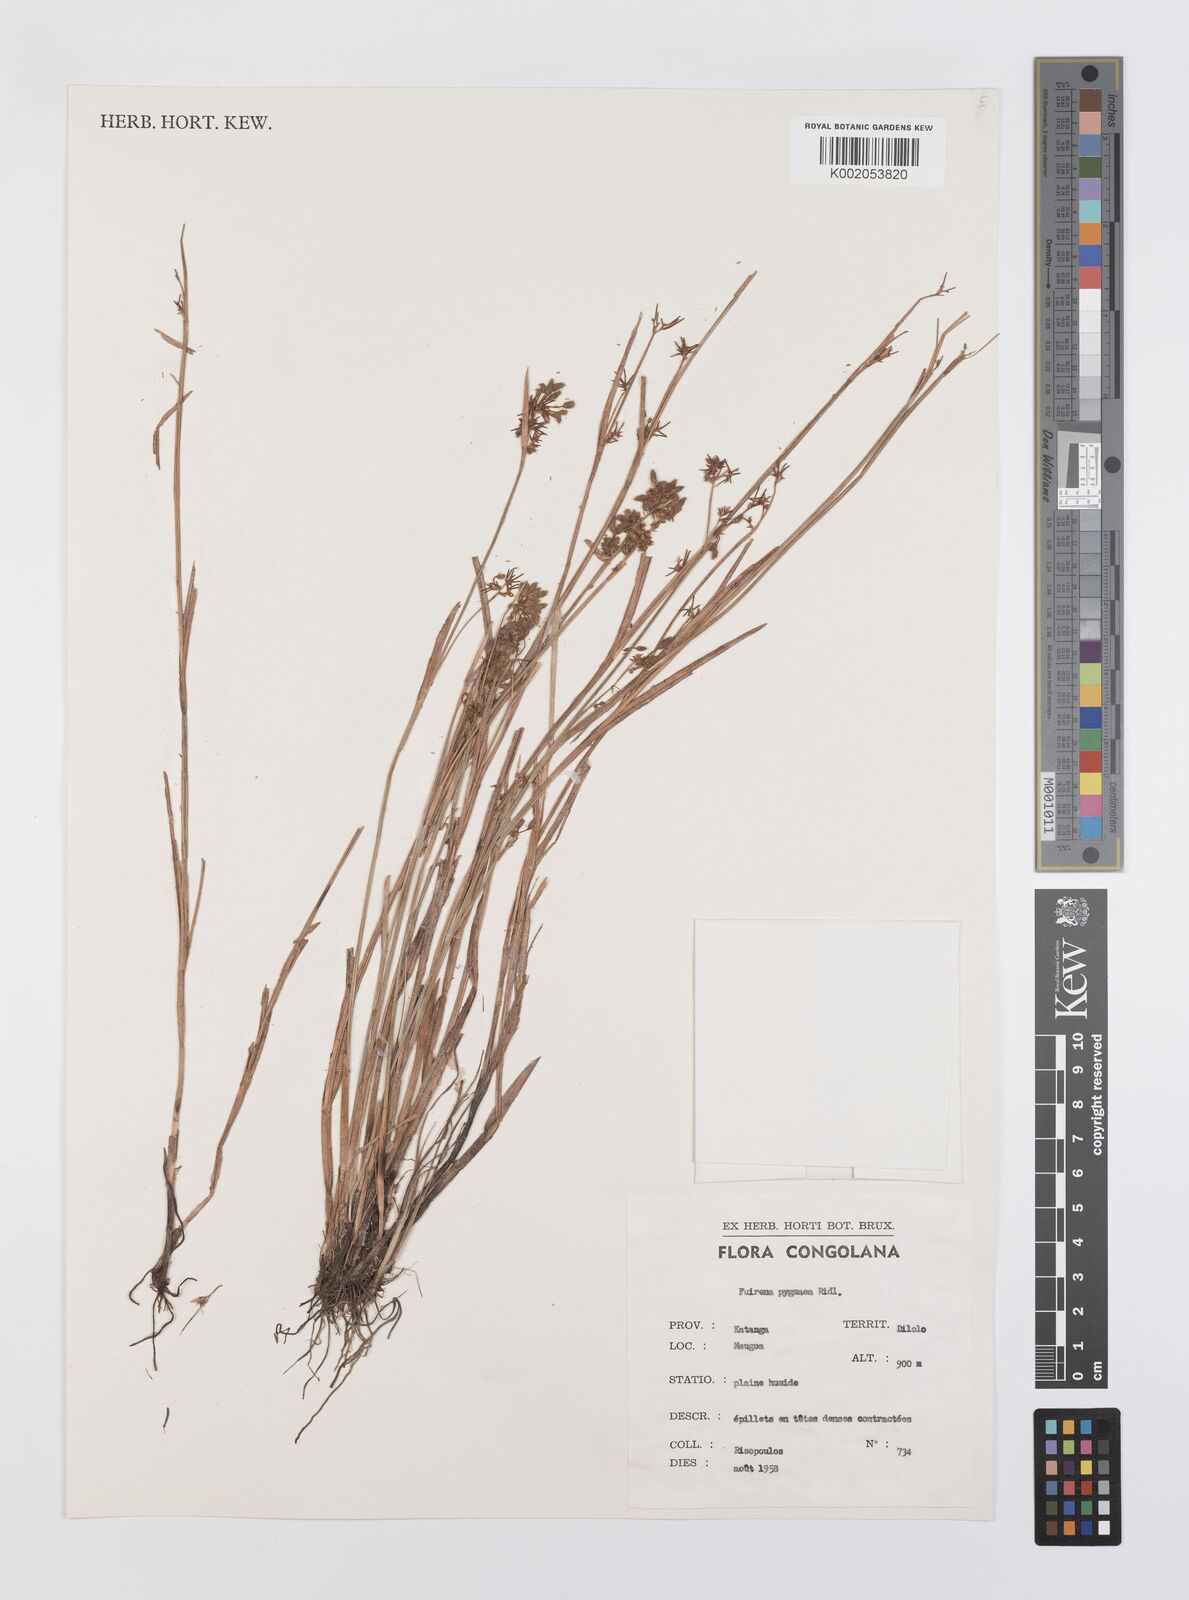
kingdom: Plantae
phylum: Tracheophyta
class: Liliopsida
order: Poales
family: Cyperaceae
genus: Fuirena
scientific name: Fuirena leptostachya
